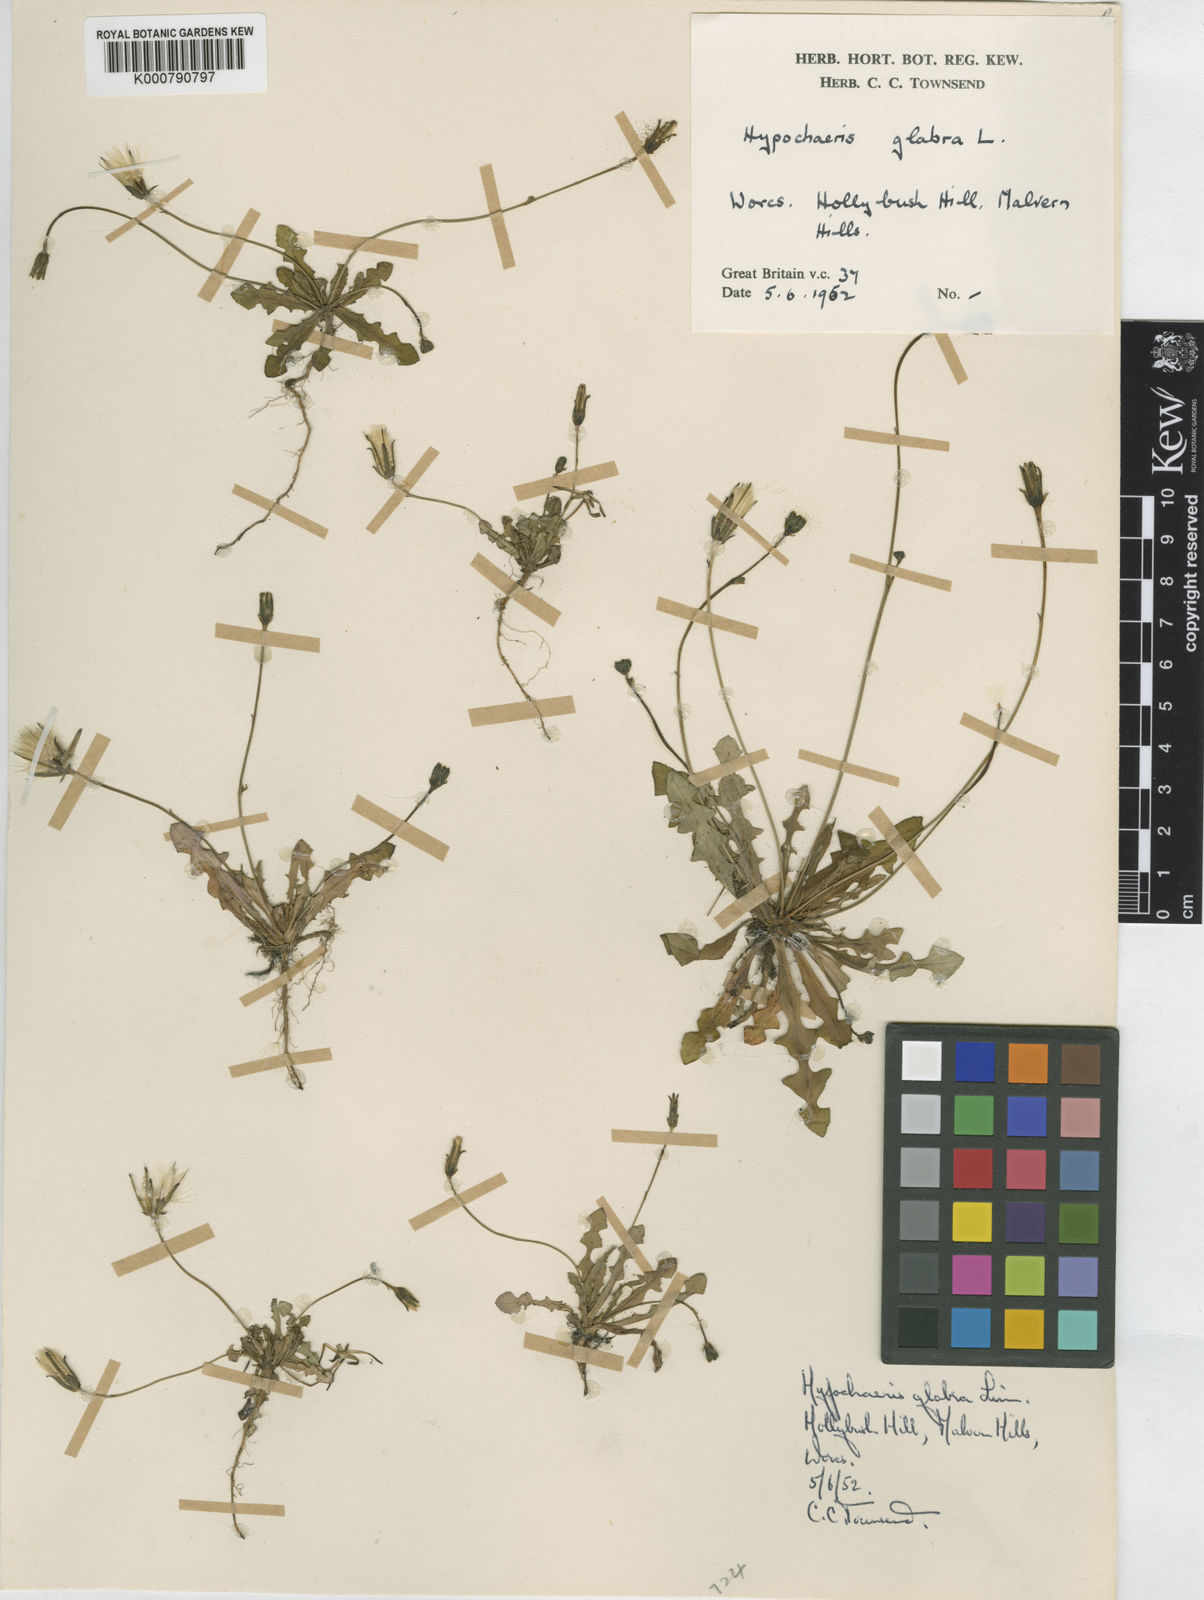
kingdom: Plantae
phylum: Tracheophyta
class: Magnoliopsida
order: Asterales
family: Asteraceae
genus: Hypochaeris
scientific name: Hypochaeris glabra
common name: Smooth catsear
